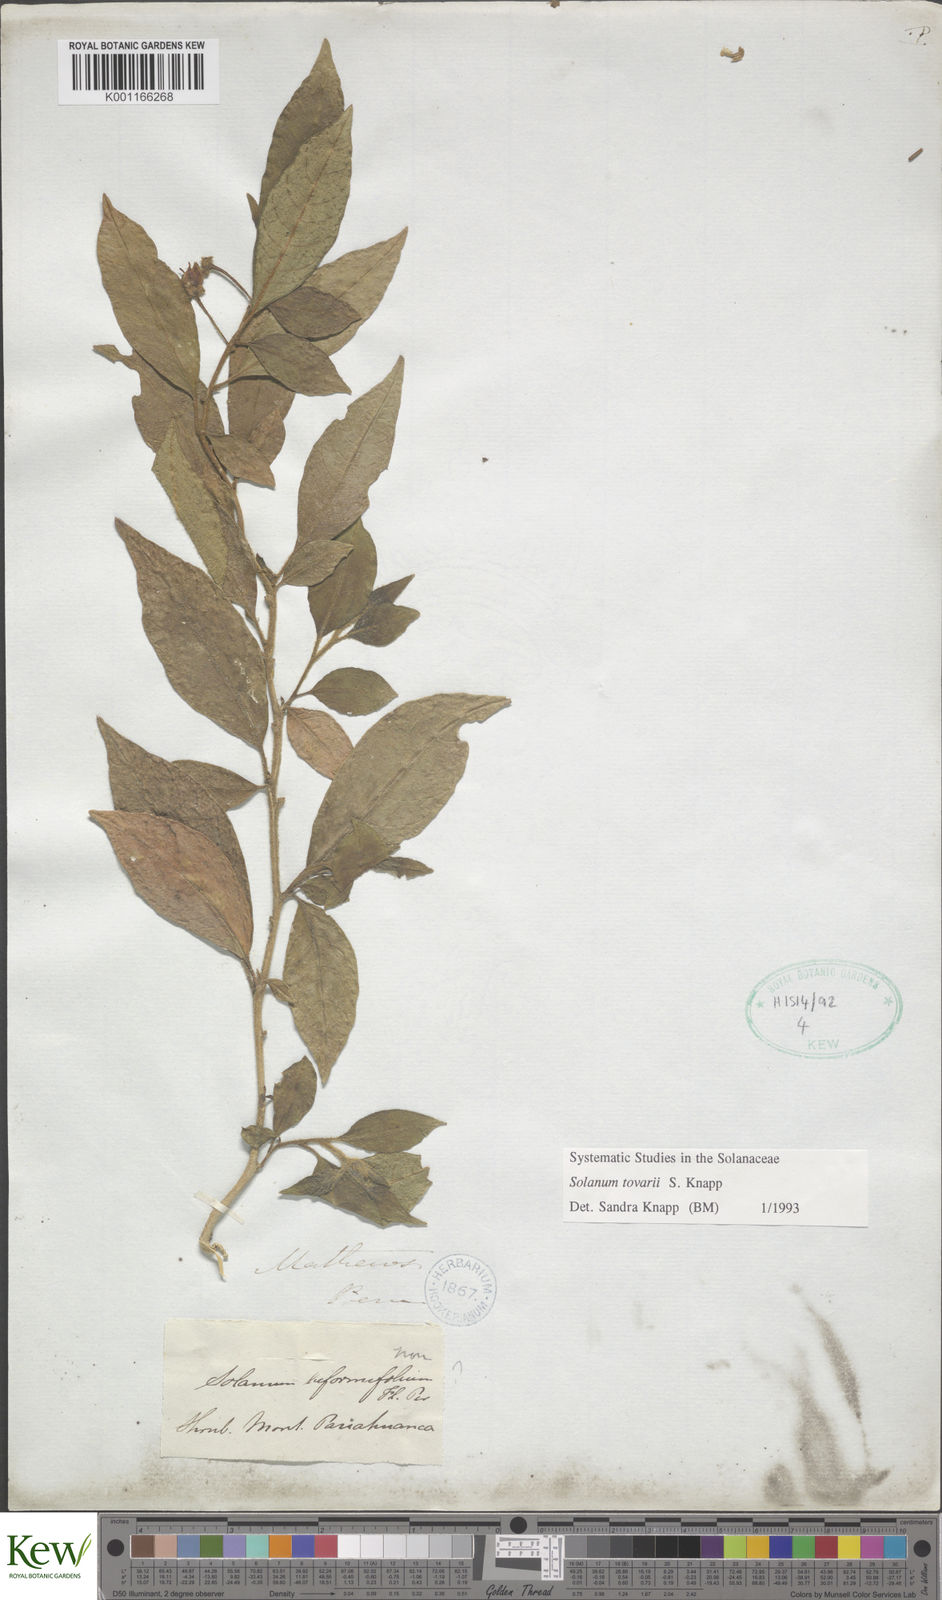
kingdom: Plantae
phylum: Tracheophyta
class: Magnoliopsida
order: Solanales
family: Solanaceae
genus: Solanum
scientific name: Solanum tovarii
